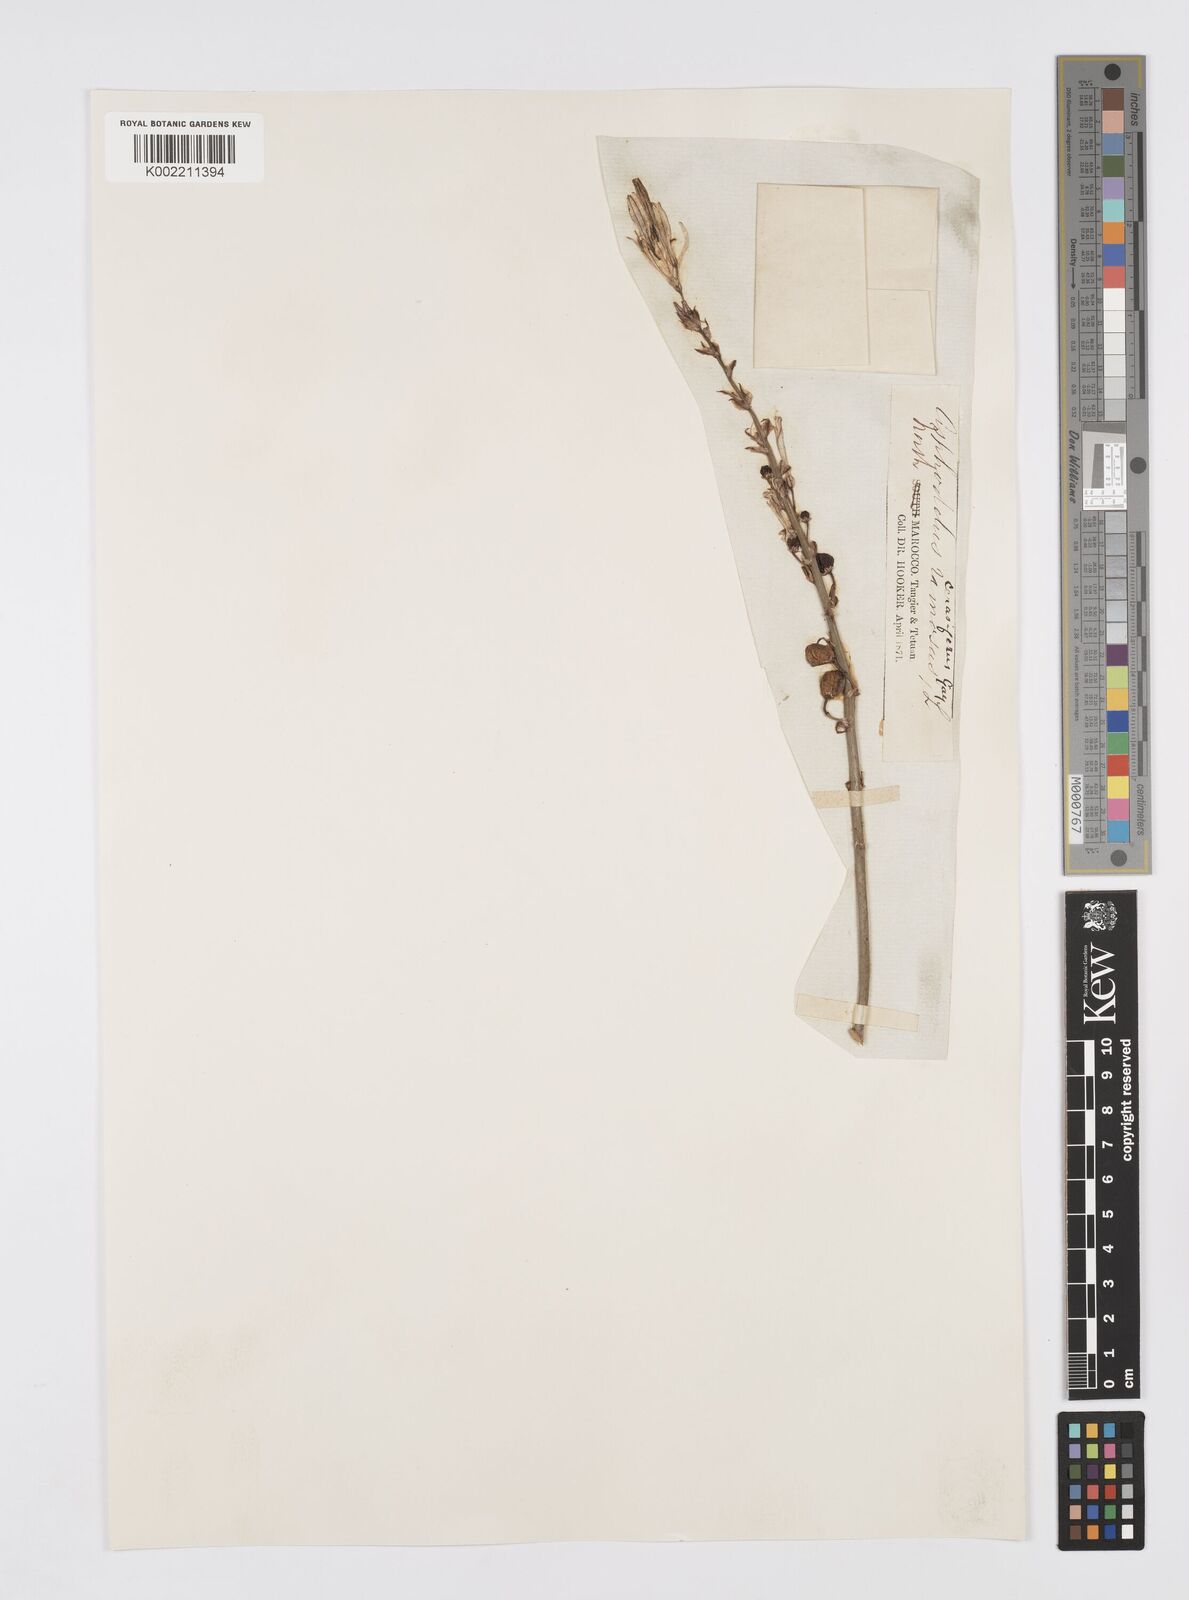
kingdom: Plantae
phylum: Tracheophyta
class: Liliopsida
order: Asparagales
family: Asphodelaceae
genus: Asphodelus
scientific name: Asphodelus ramosus
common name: Silverrod
